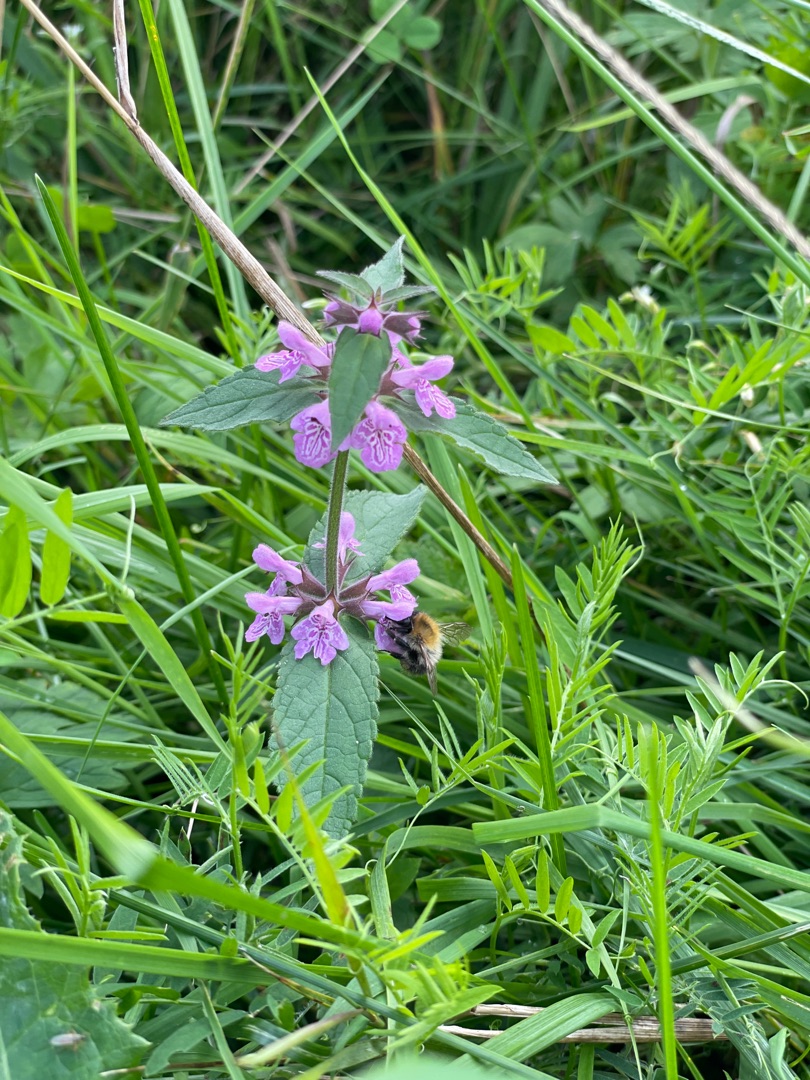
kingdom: Plantae
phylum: Tracheophyta
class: Magnoliopsida
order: Lamiales
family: Lamiaceae
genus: Stachys
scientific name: Stachys palustris
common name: Kær-galtetand
